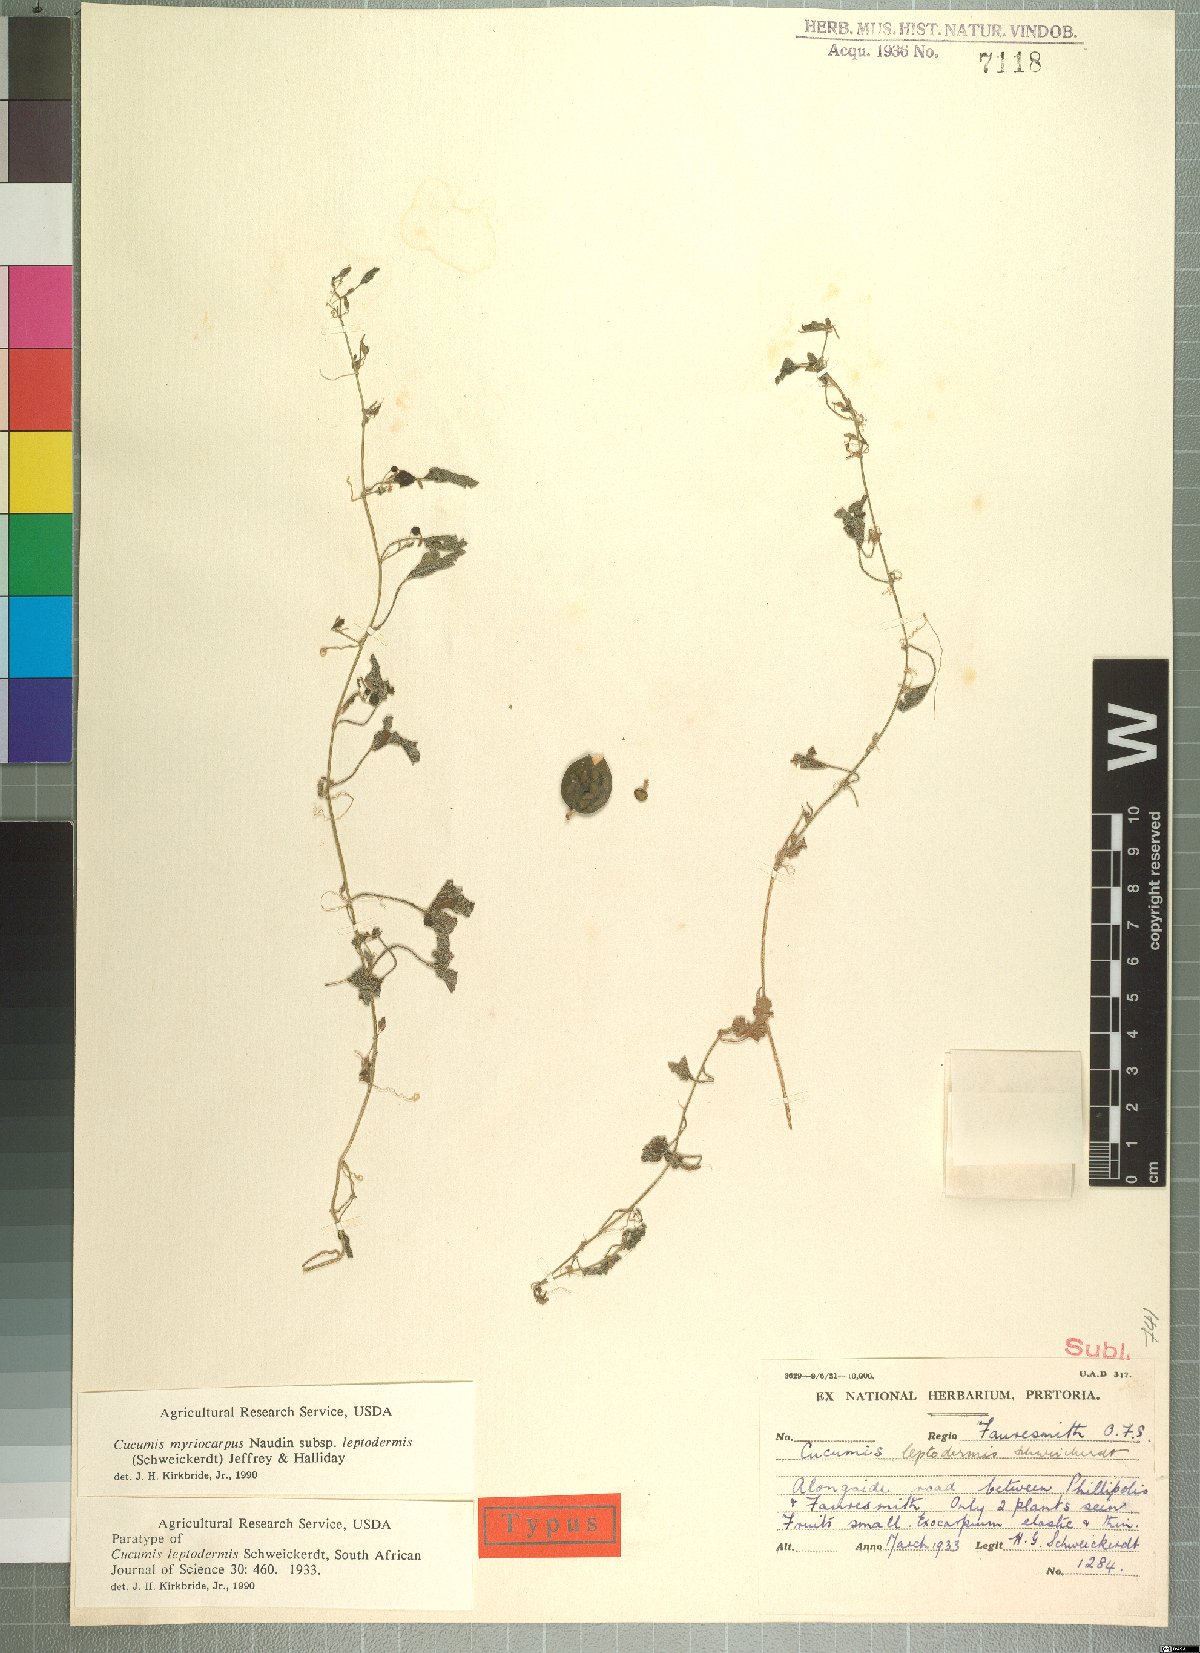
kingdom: Plantae
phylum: Tracheophyta
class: Magnoliopsida
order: Cucurbitales
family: Cucurbitaceae
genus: Cucumis
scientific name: Cucumis myriocarpus
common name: Gooseberry cucumber
